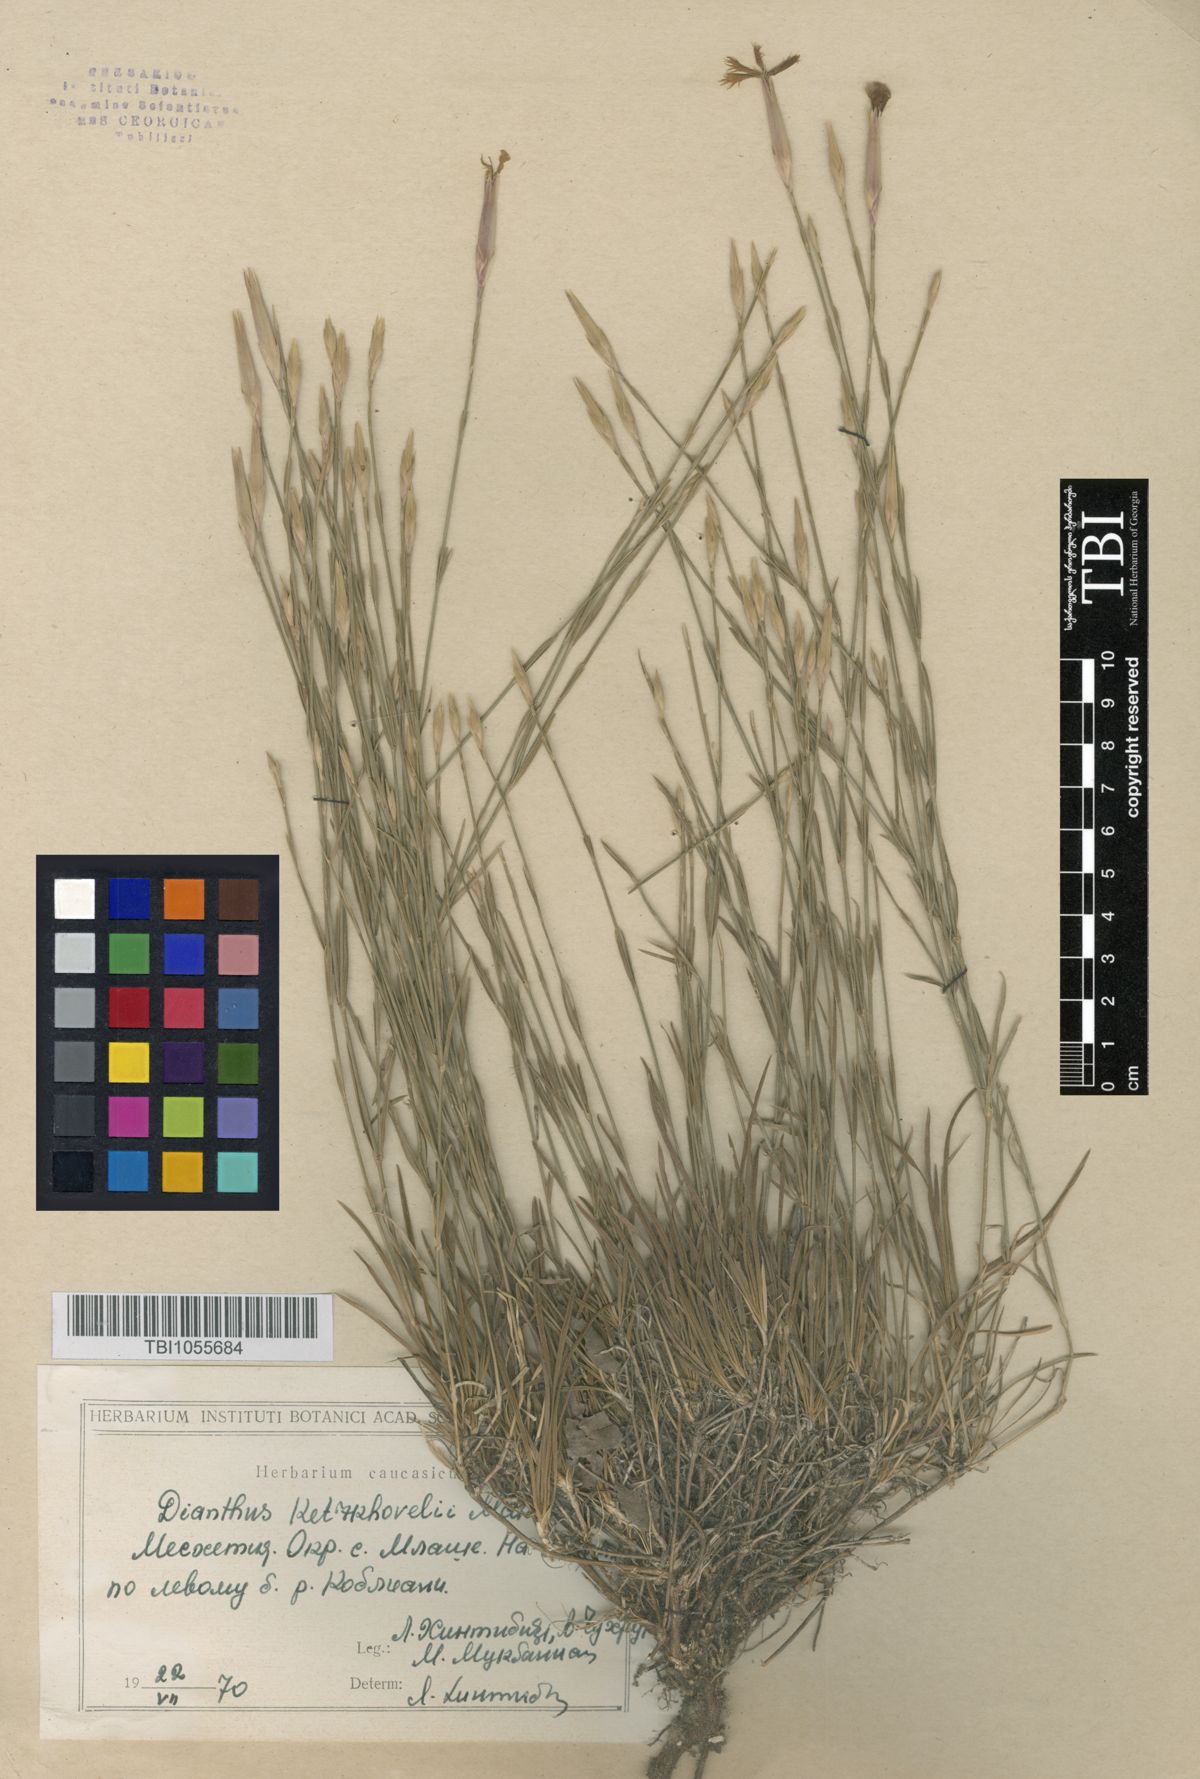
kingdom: Plantae
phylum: Tracheophyta
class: Magnoliopsida
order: Caryophyllales
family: Caryophyllaceae
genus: Dianthus
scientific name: Dianthus orientalis
